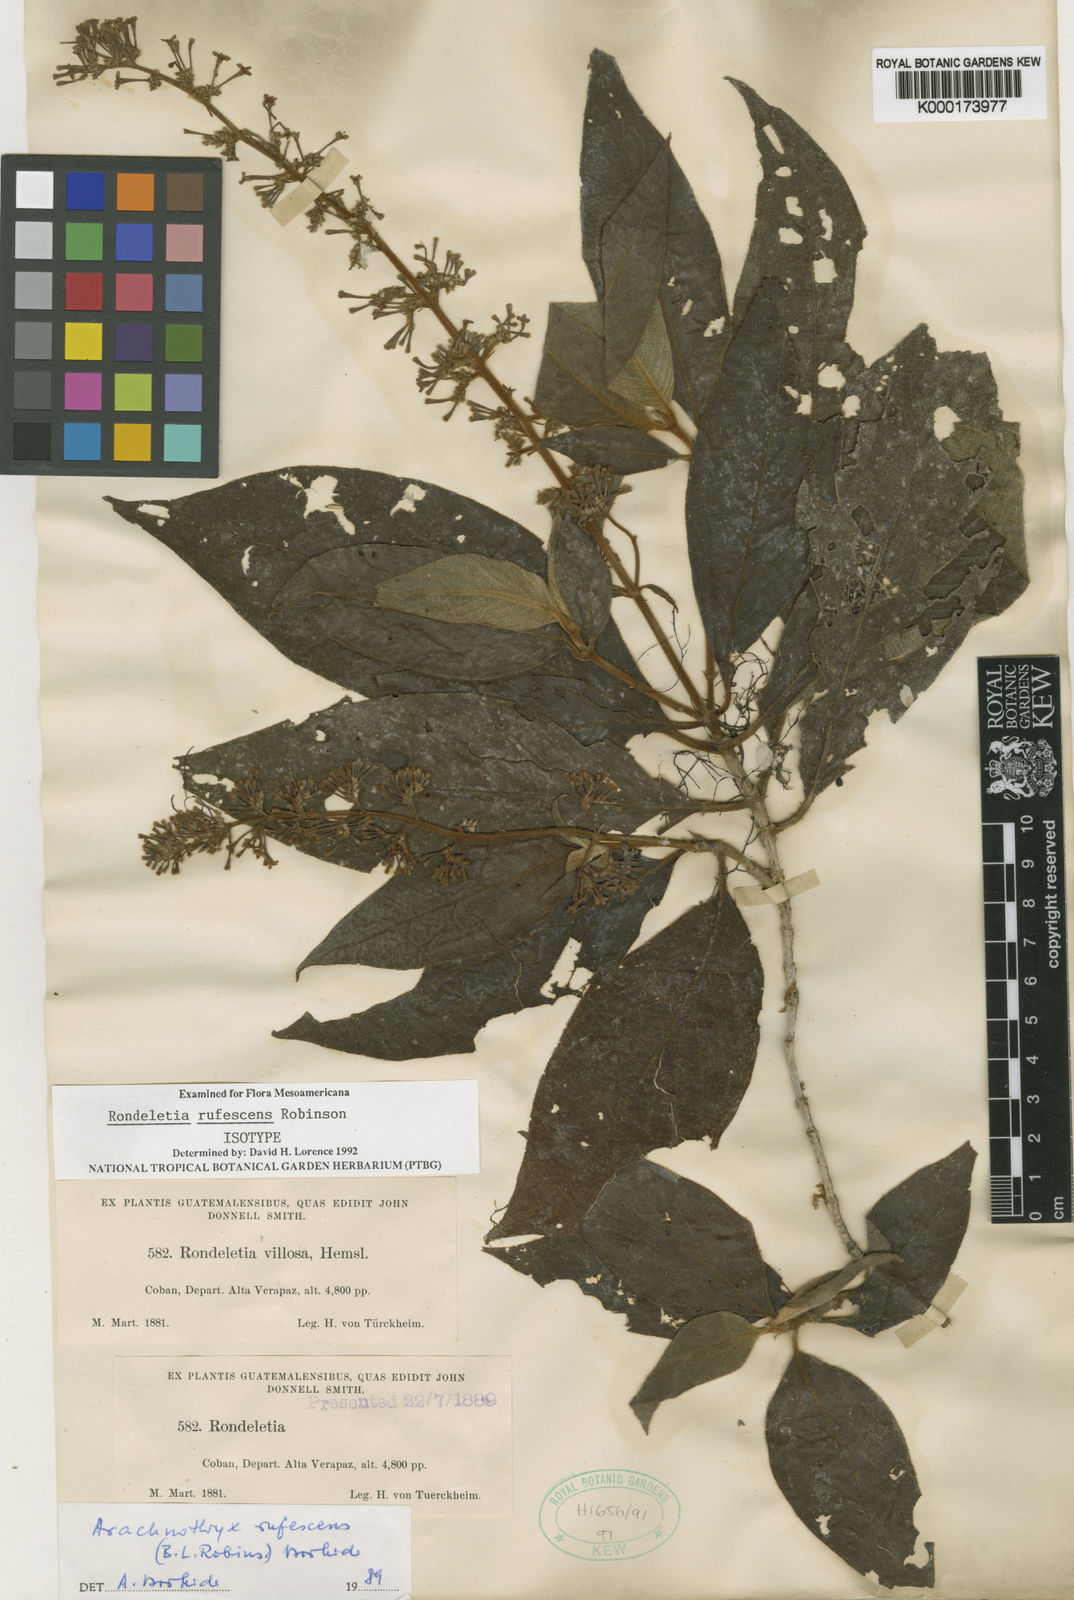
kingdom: Plantae
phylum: Tracheophyta
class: Magnoliopsida
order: Gentianales
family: Rubiaceae
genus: Arachnothryx
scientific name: Arachnothryx rufescens
